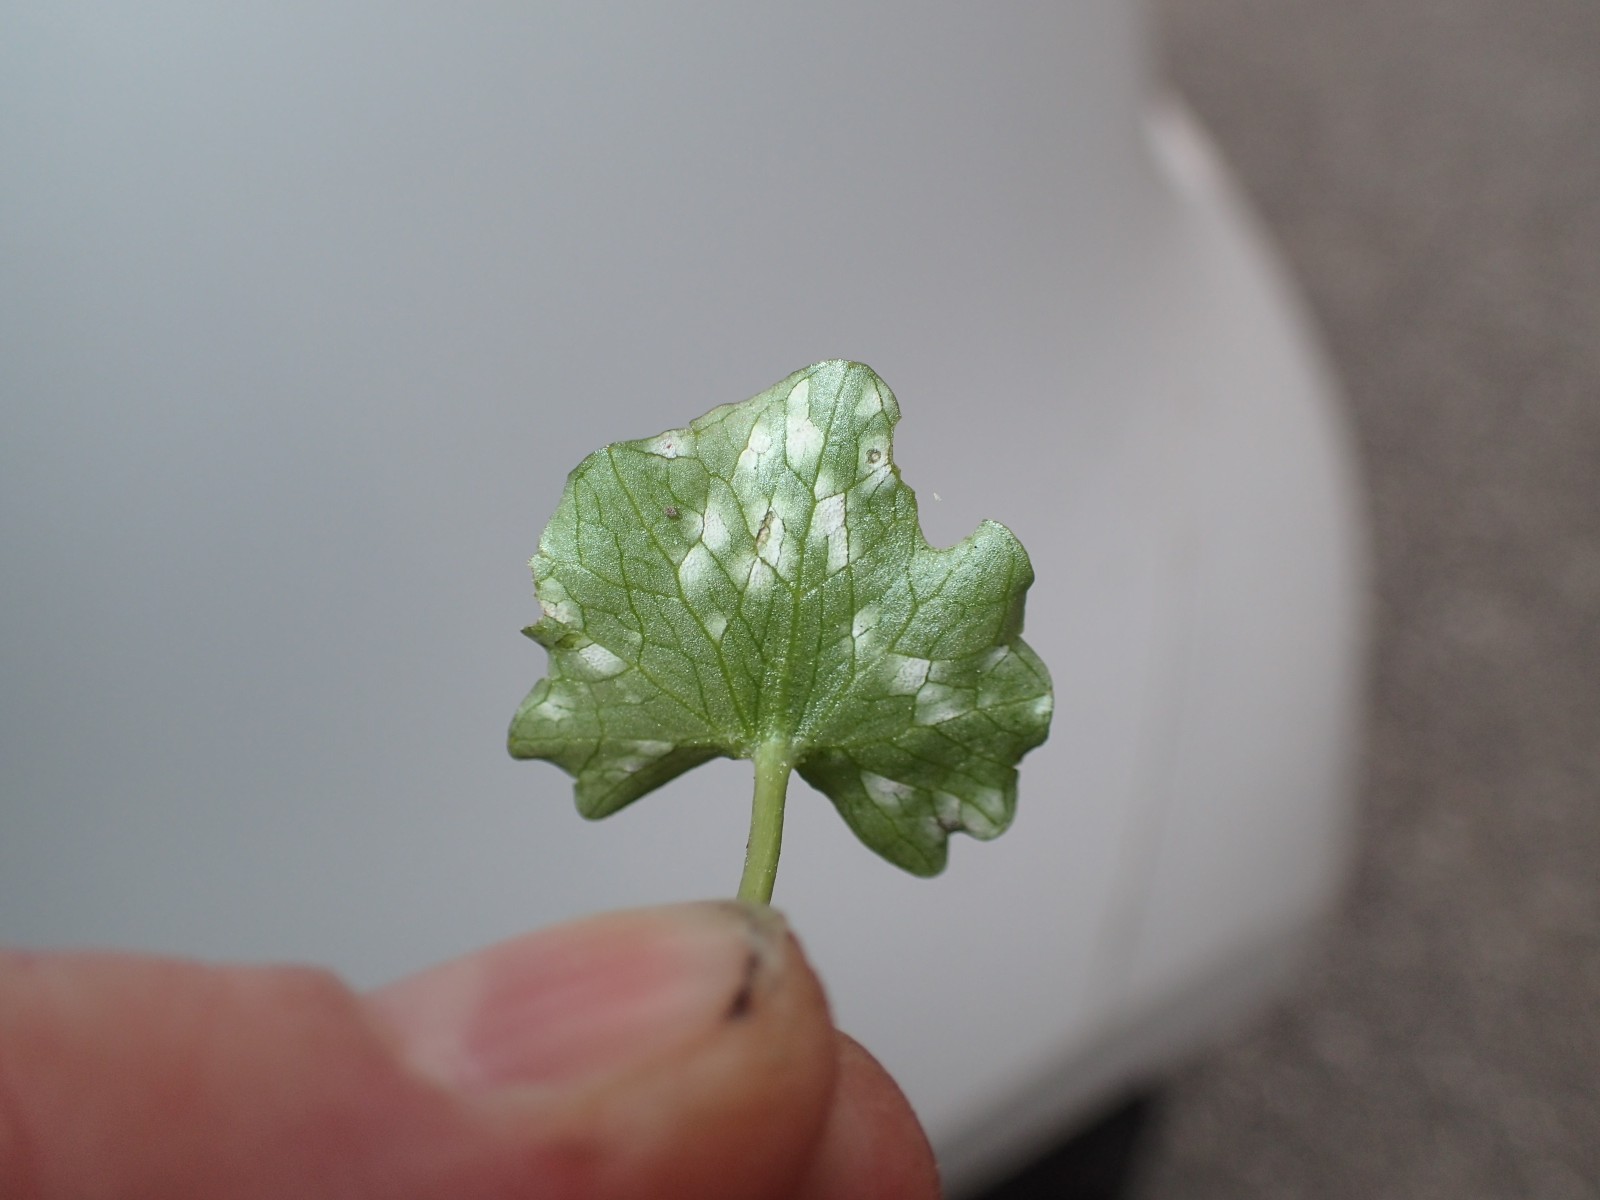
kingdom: Fungi
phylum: Basidiomycota
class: Exobasidiomycetes
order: Entylomatales
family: Entylomataceae
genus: Entyloma
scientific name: Entyloma ficariae
